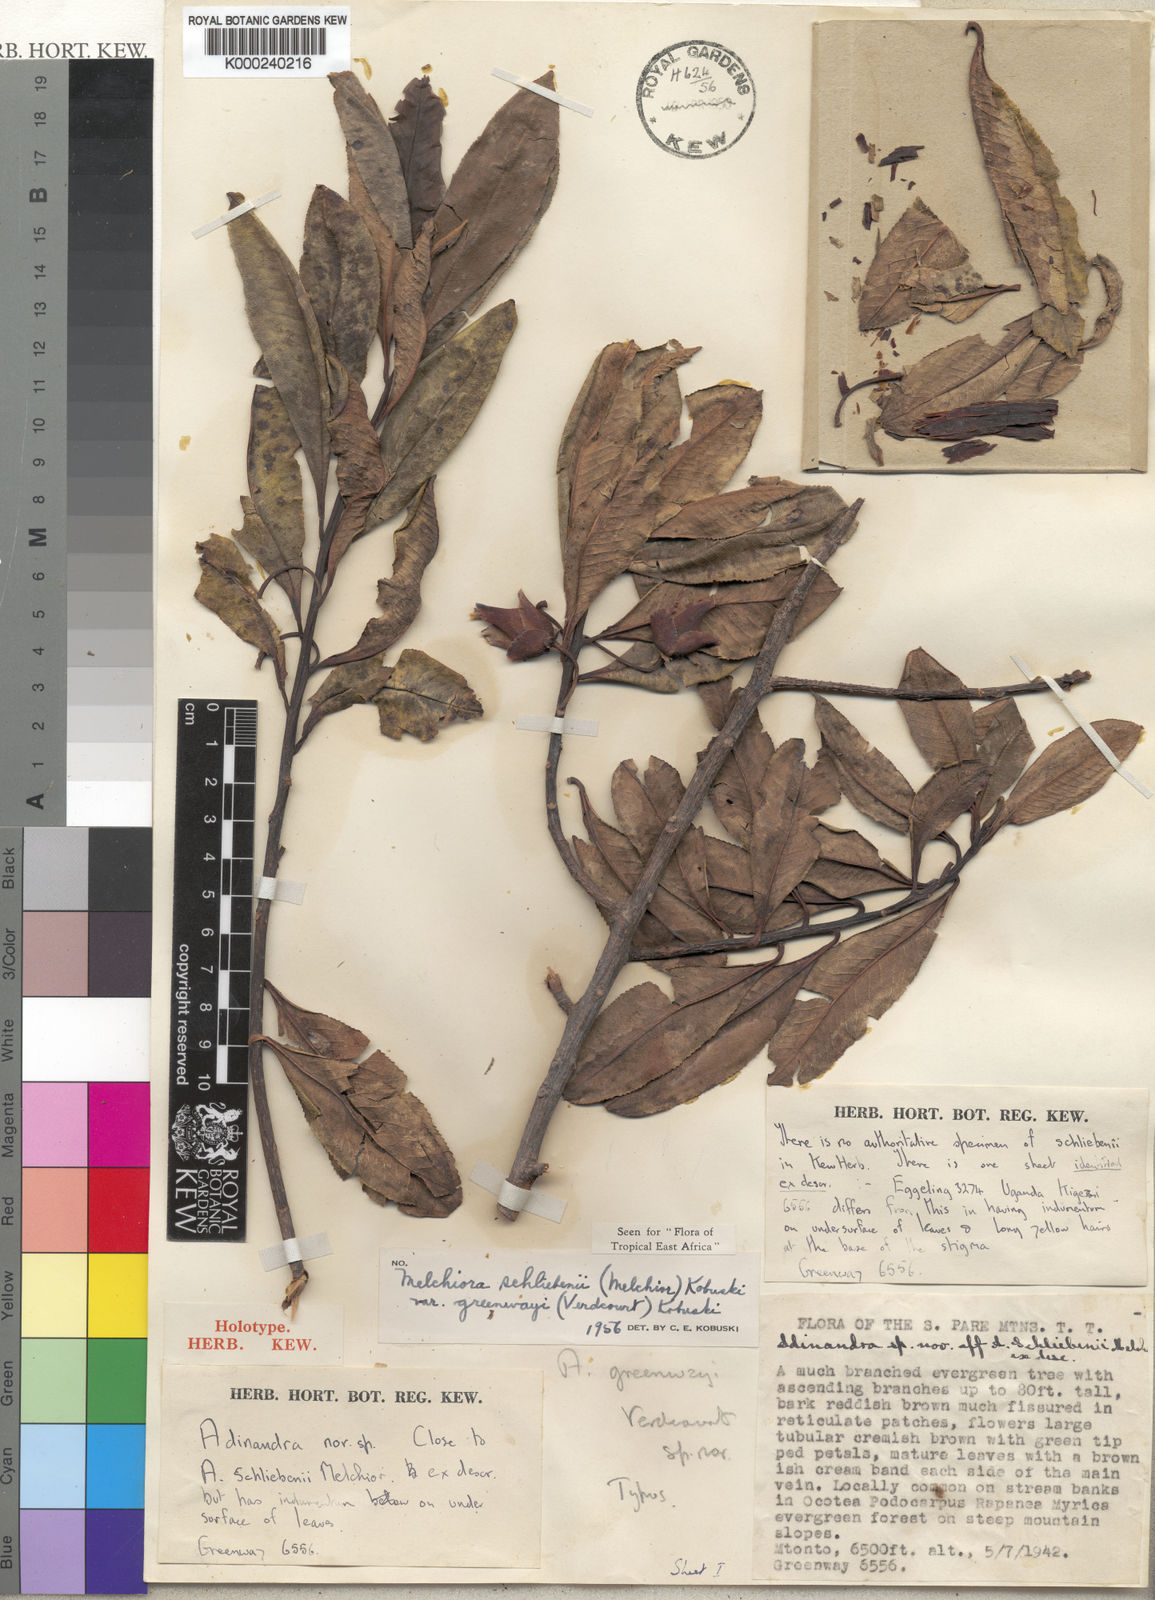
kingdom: Plantae
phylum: Tracheophyta
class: Magnoliopsida
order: Ericales
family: Pentaphylacaceae
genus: Balthasaria
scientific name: Balthasaria schliebenii
